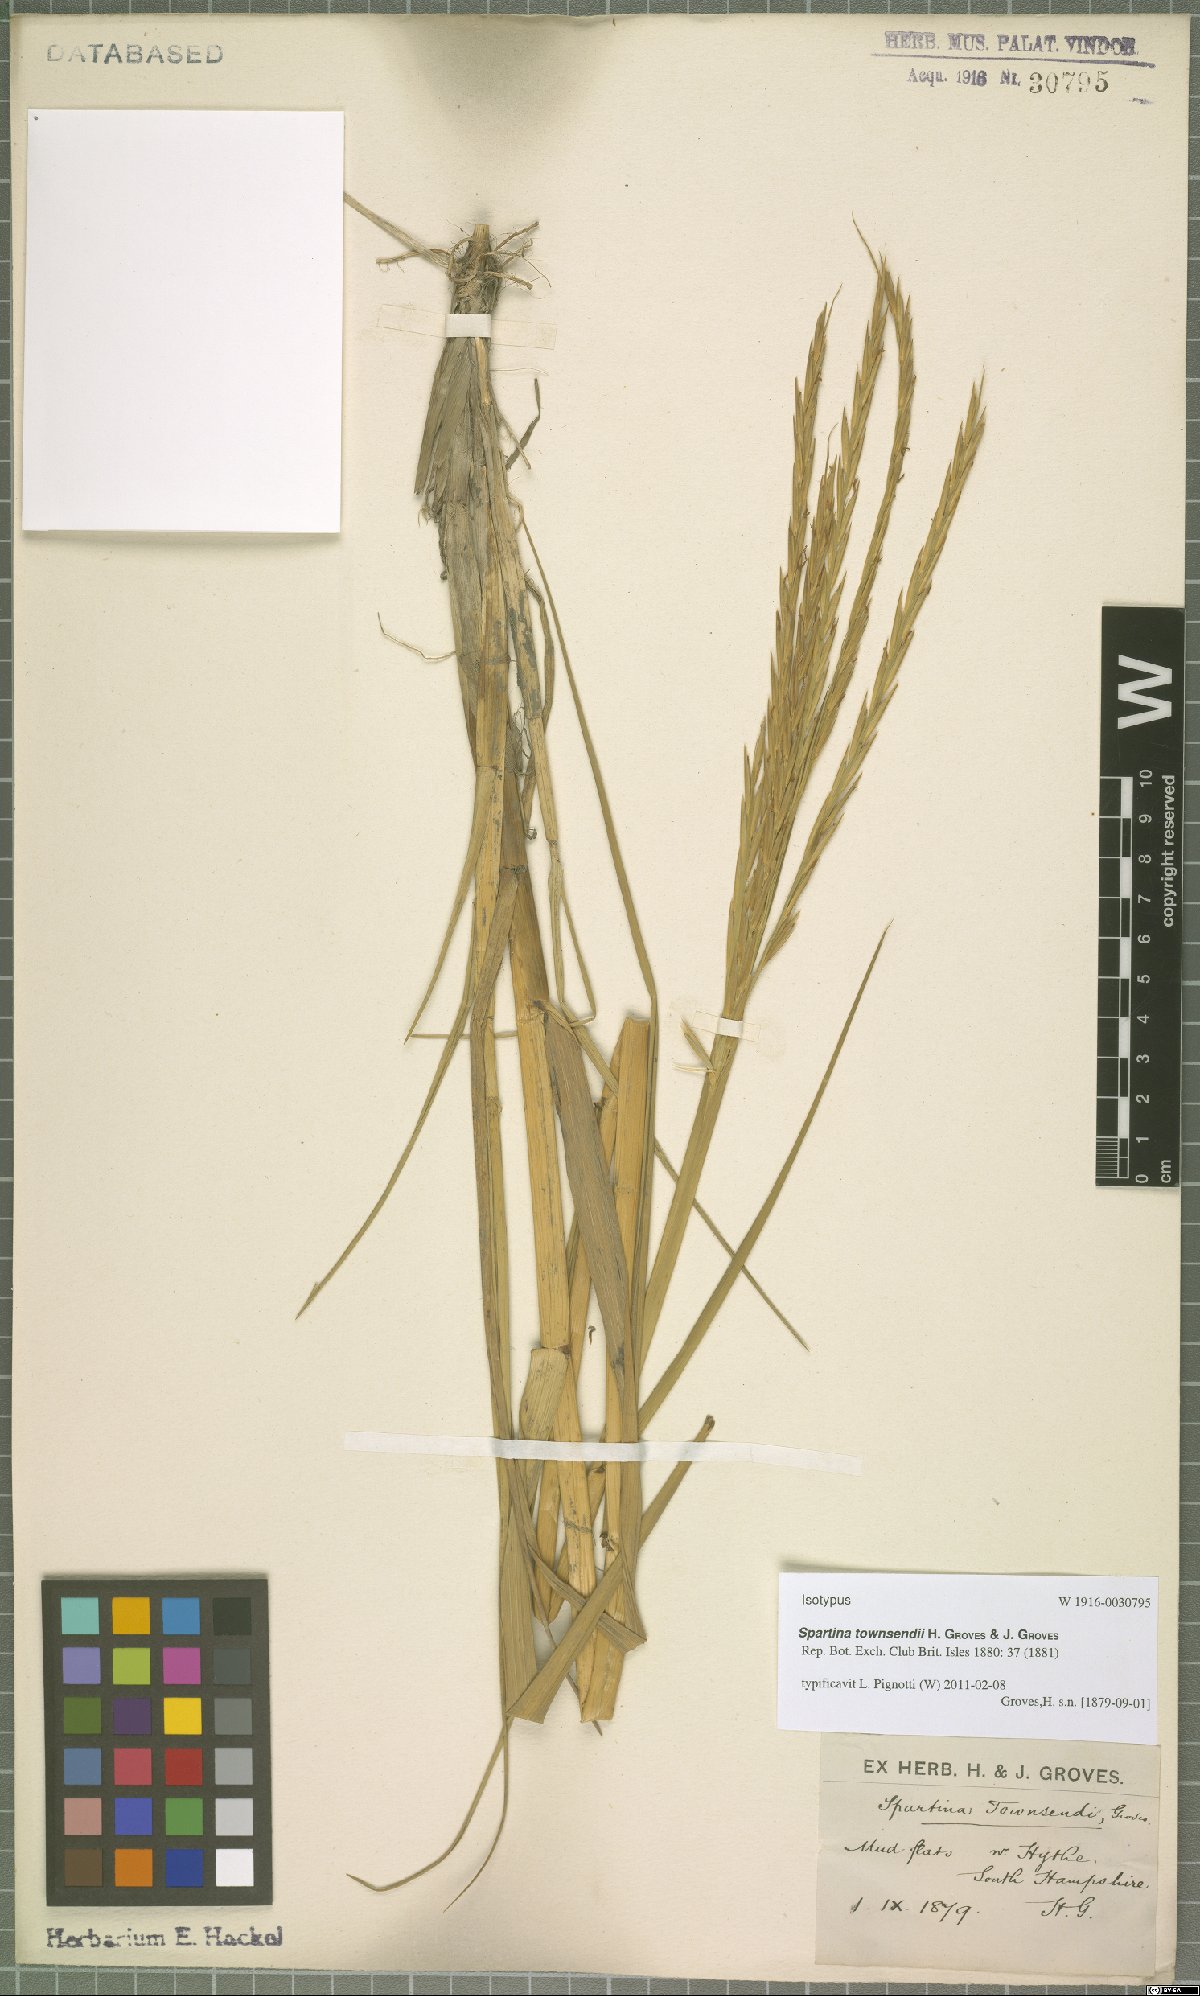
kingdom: Plantae
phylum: Tracheophyta
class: Liliopsida
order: Poales
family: Poaceae
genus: Sporobolus
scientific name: Sporobolus townsendii
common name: Townsend's cordgrass
